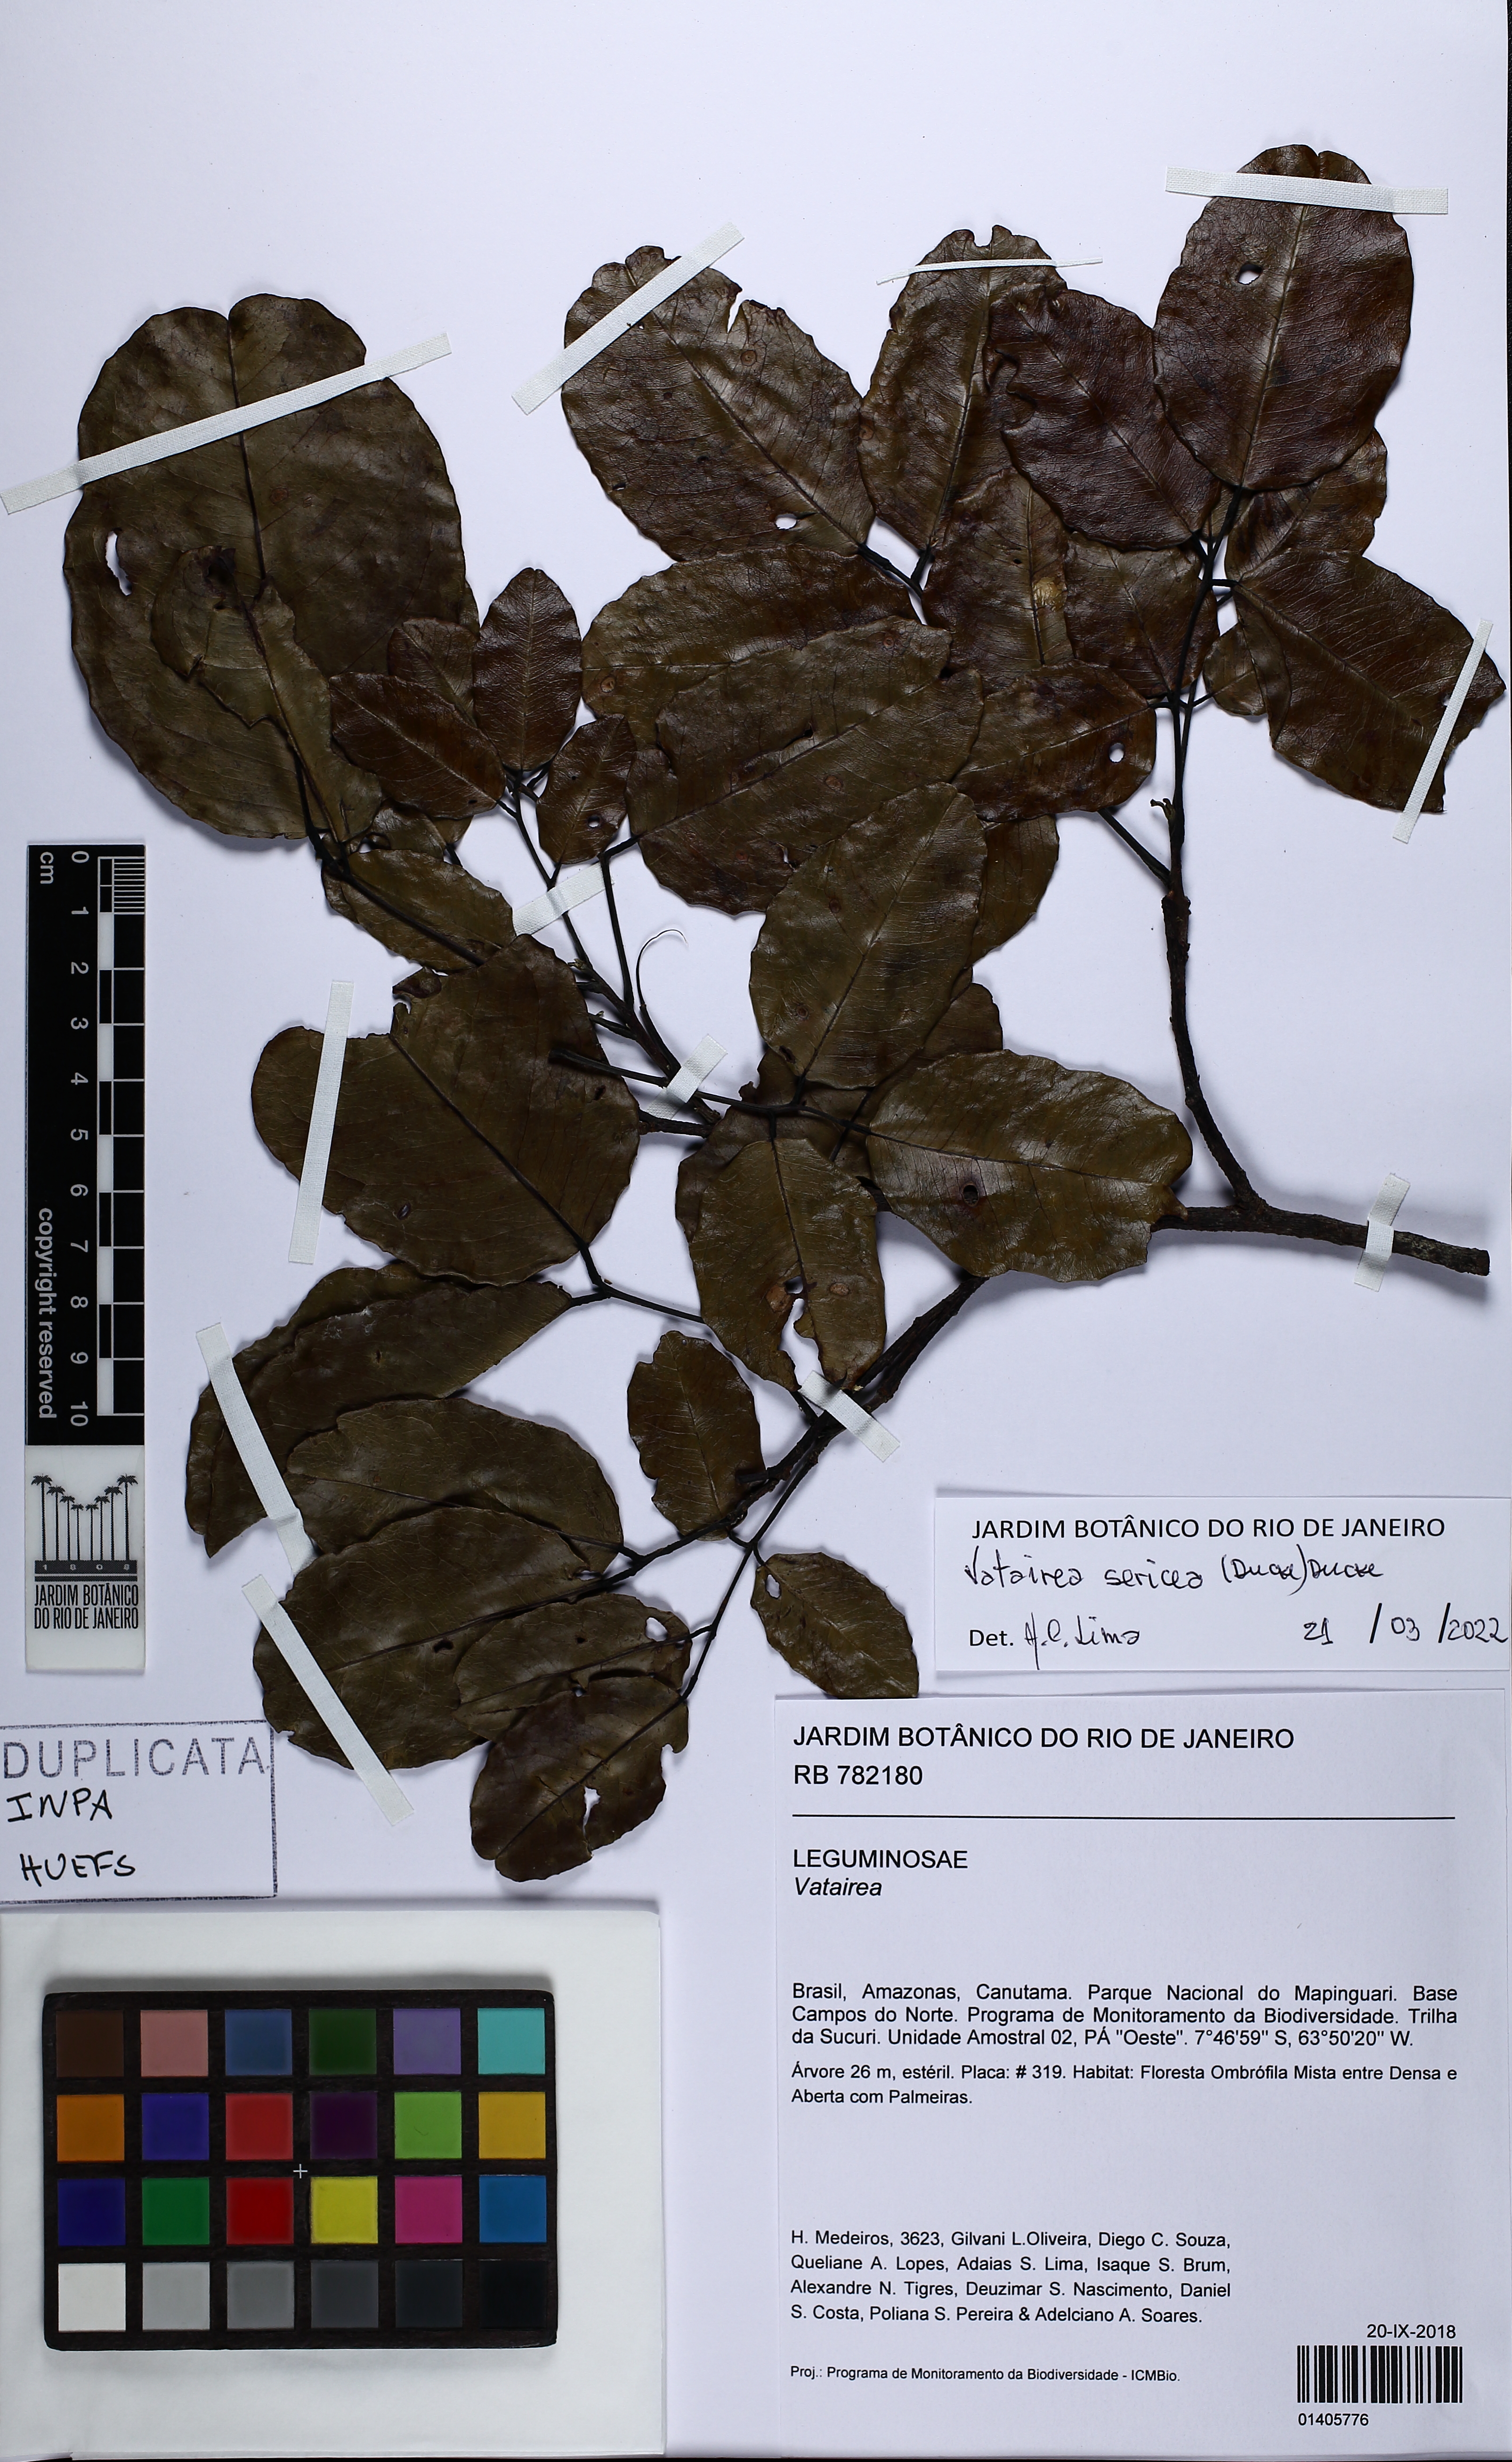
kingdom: Plantae
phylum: Tracheophyta
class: Magnoliopsida
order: Fabales
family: Fabaceae
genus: Vatairea
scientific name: Vatairea sericea
